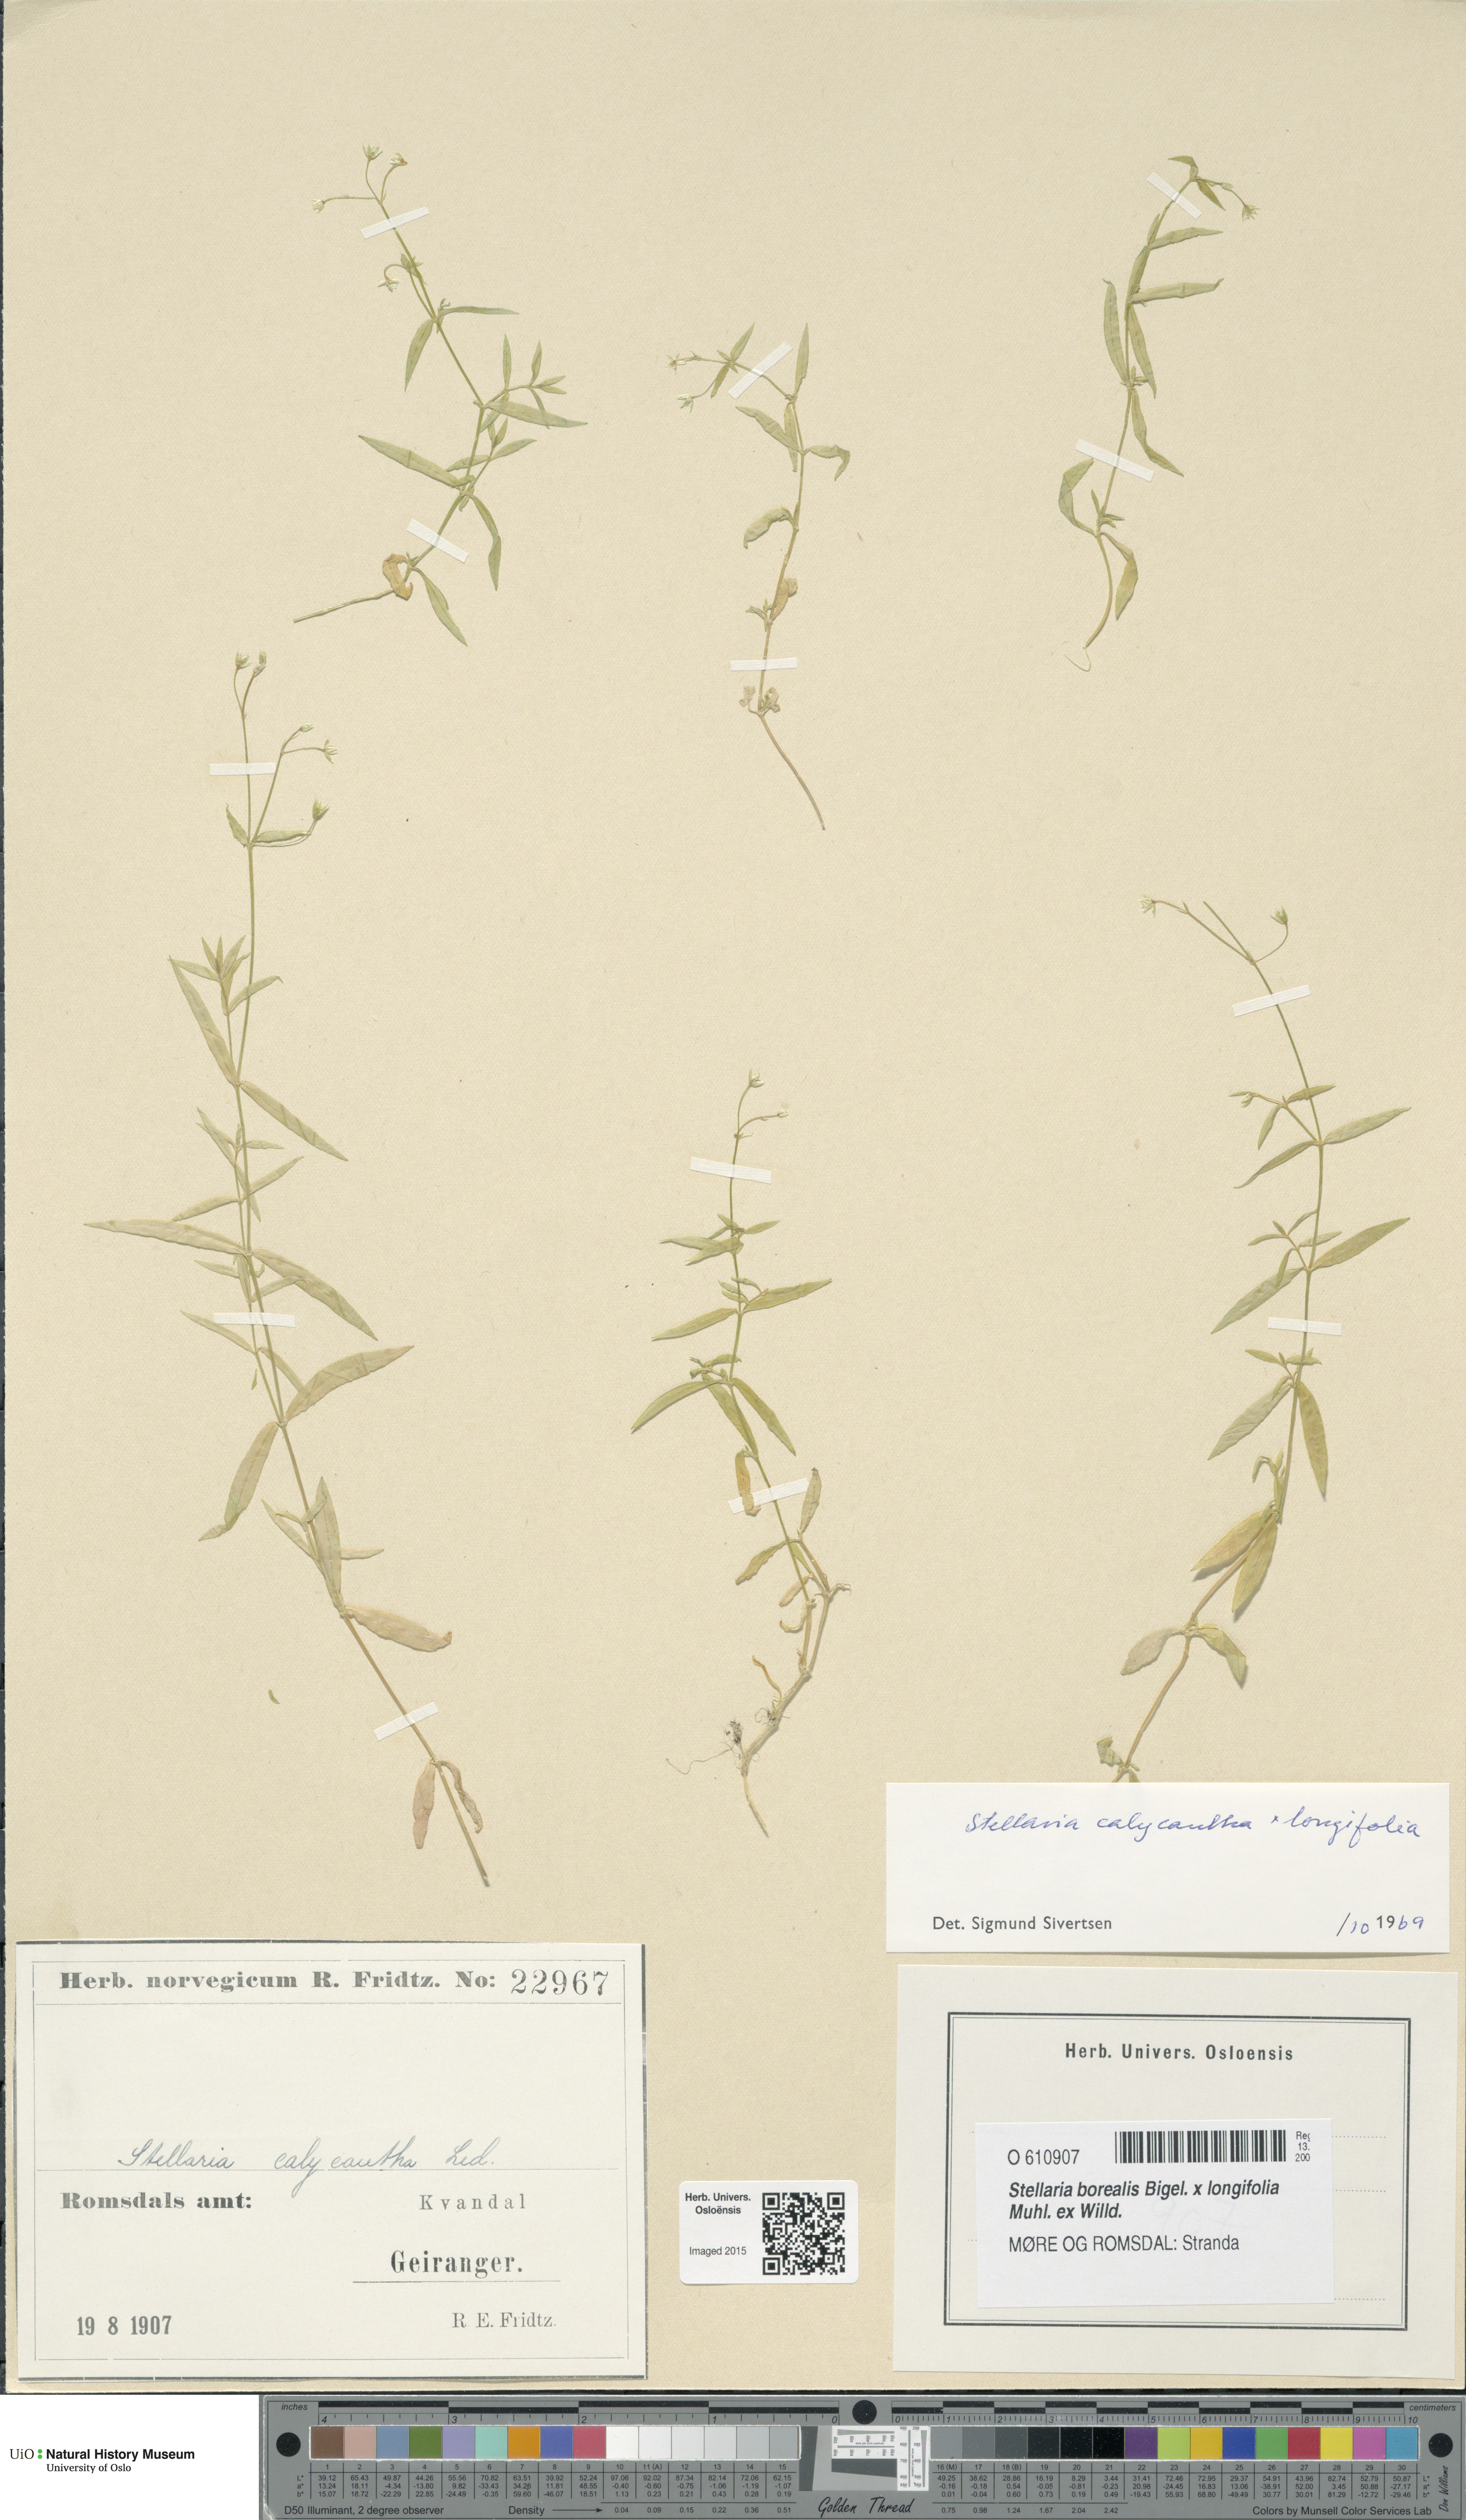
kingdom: Plantae
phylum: Tracheophyta
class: Magnoliopsida
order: Caryophyllales
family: Caryophyllaceae
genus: Stellaria
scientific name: Stellaria
